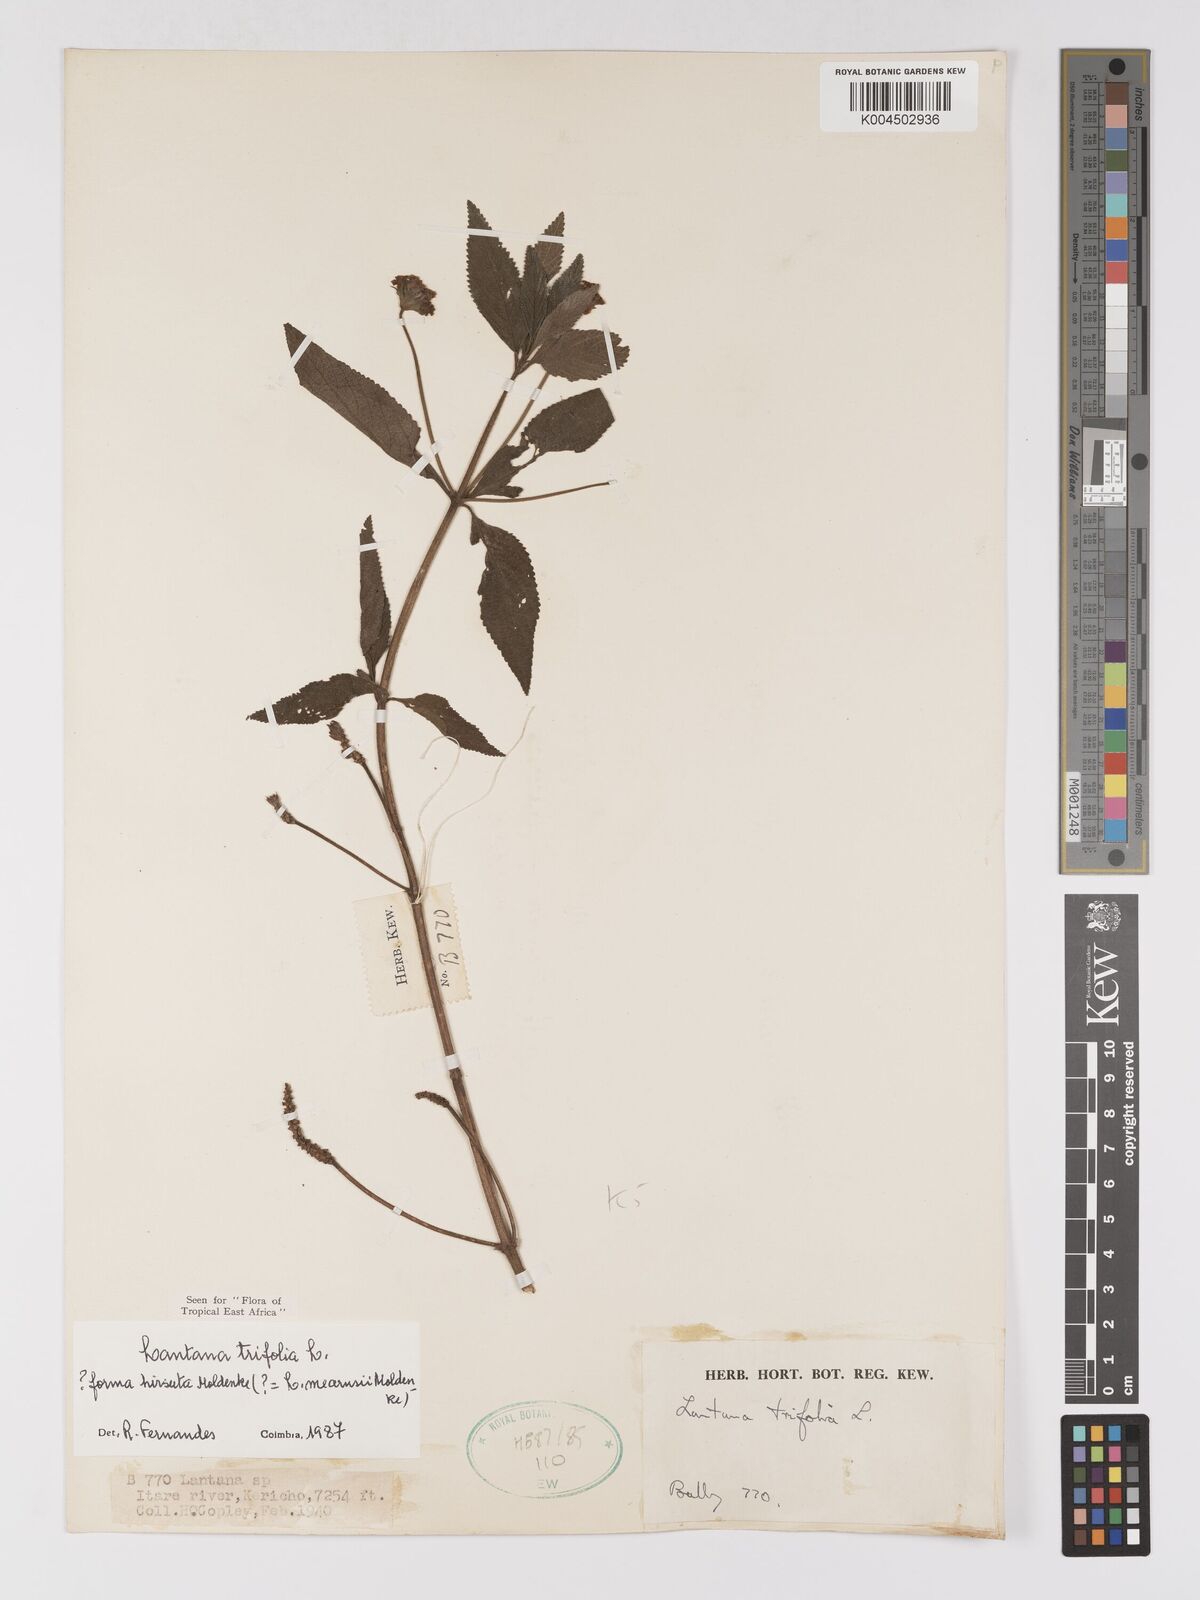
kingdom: Plantae
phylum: Tracheophyta
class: Magnoliopsida
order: Lamiales
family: Verbenaceae
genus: Lantana
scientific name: Lantana trifolia
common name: Sweet-sage
